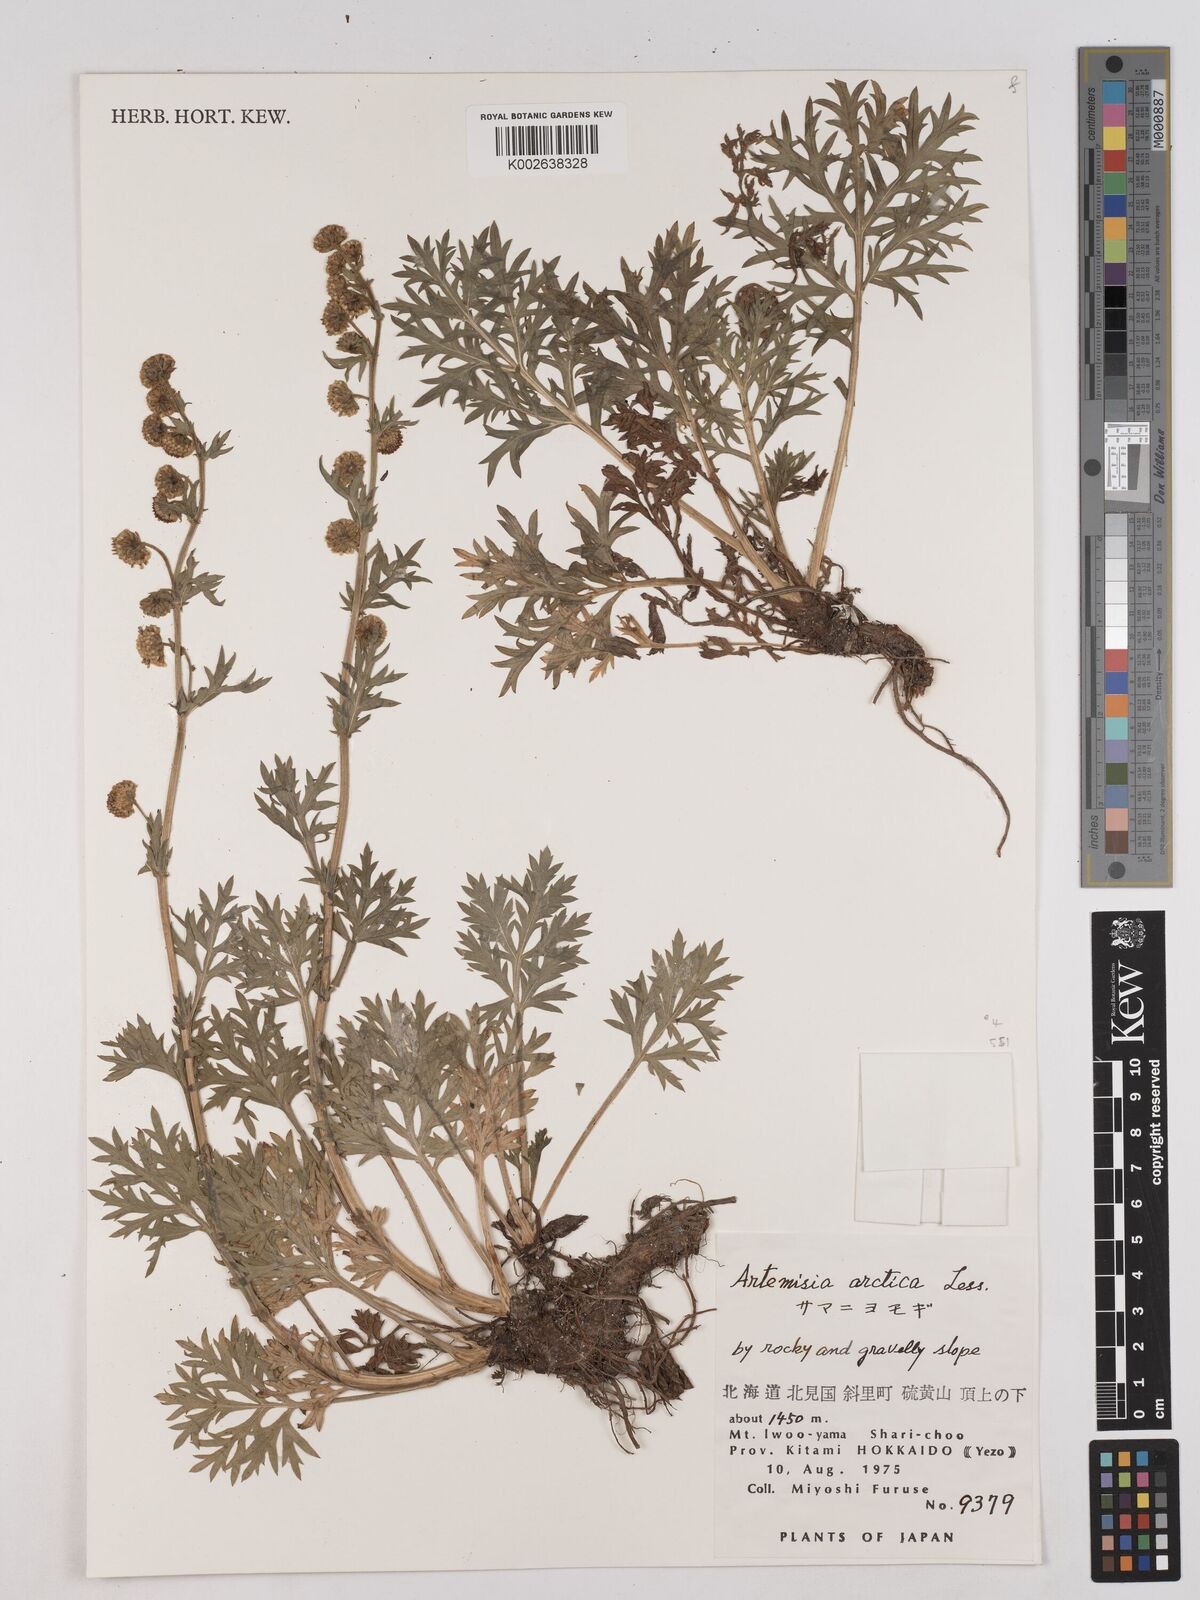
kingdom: Plantae
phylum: Tracheophyta
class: Magnoliopsida
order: Asterales
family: Asteraceae
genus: Artemisia
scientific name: Artemisia norvegica
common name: Norwegian mugwort
